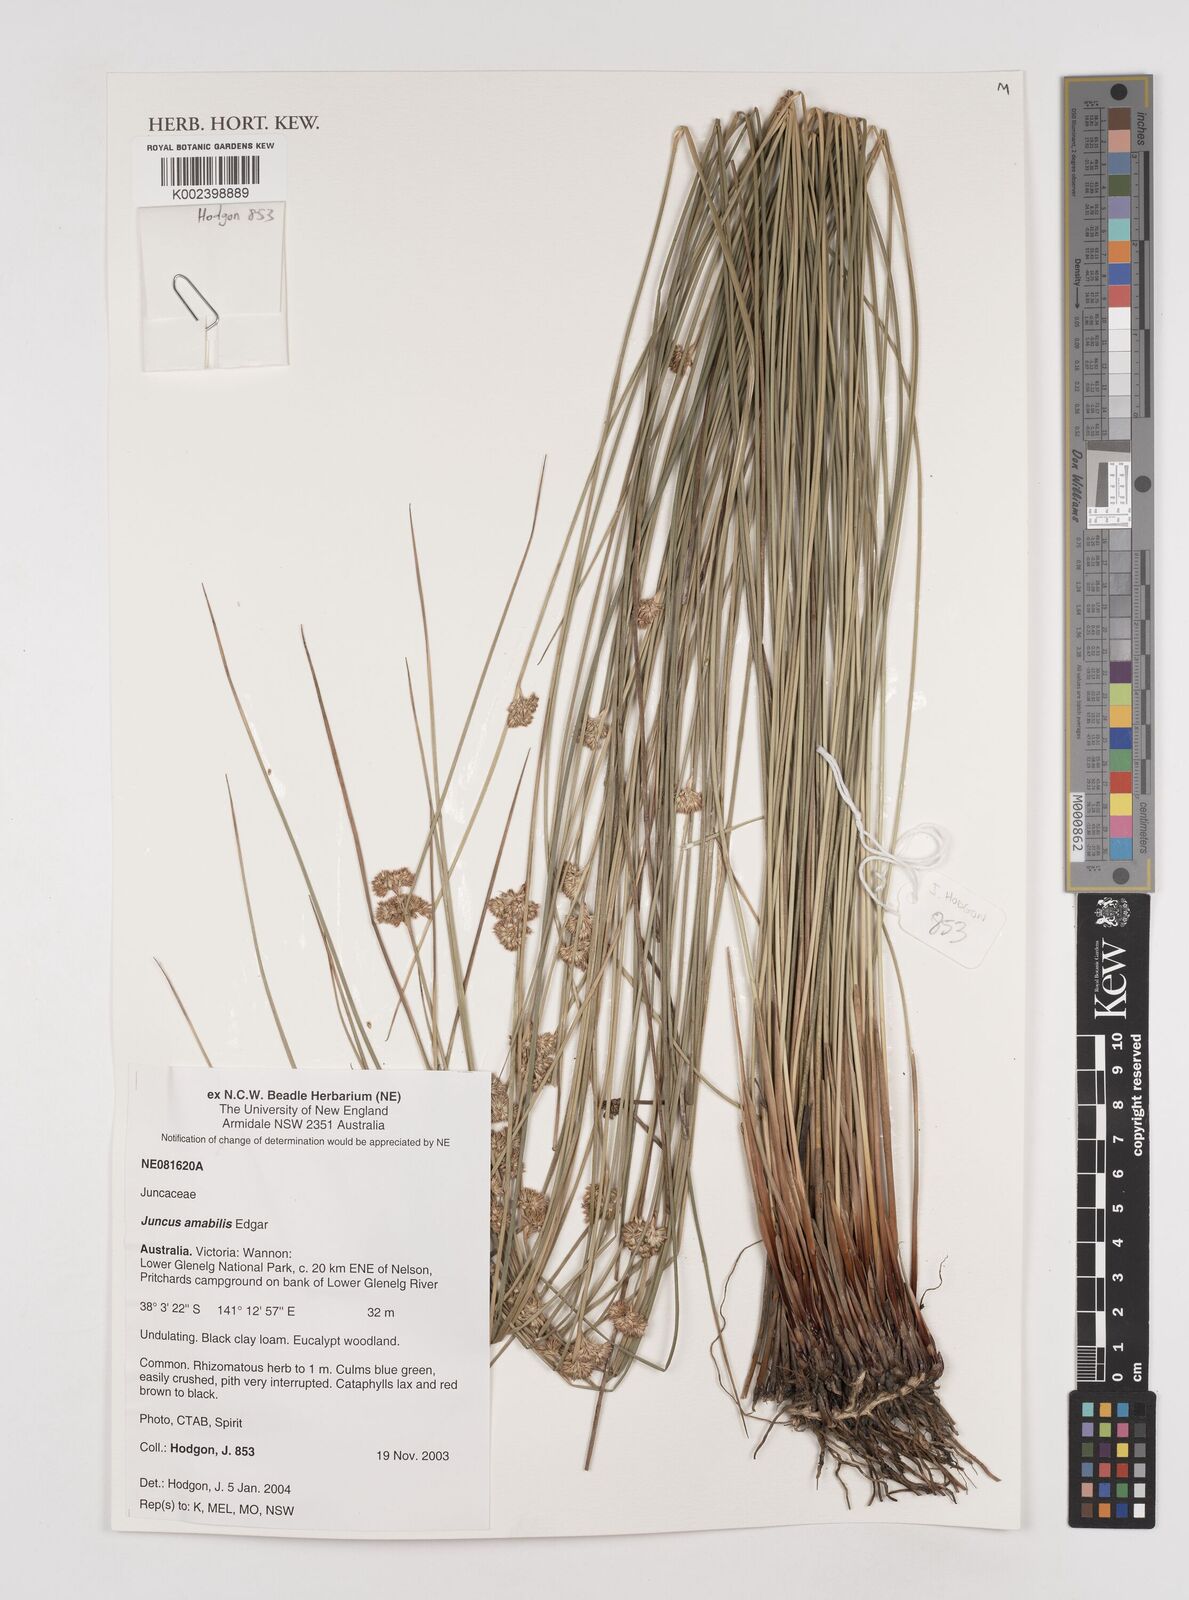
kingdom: Plantae
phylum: Tracheophyta
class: Liliopsida
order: Poales
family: Juncaceae
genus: Juncus
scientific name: Juncus amabilis
